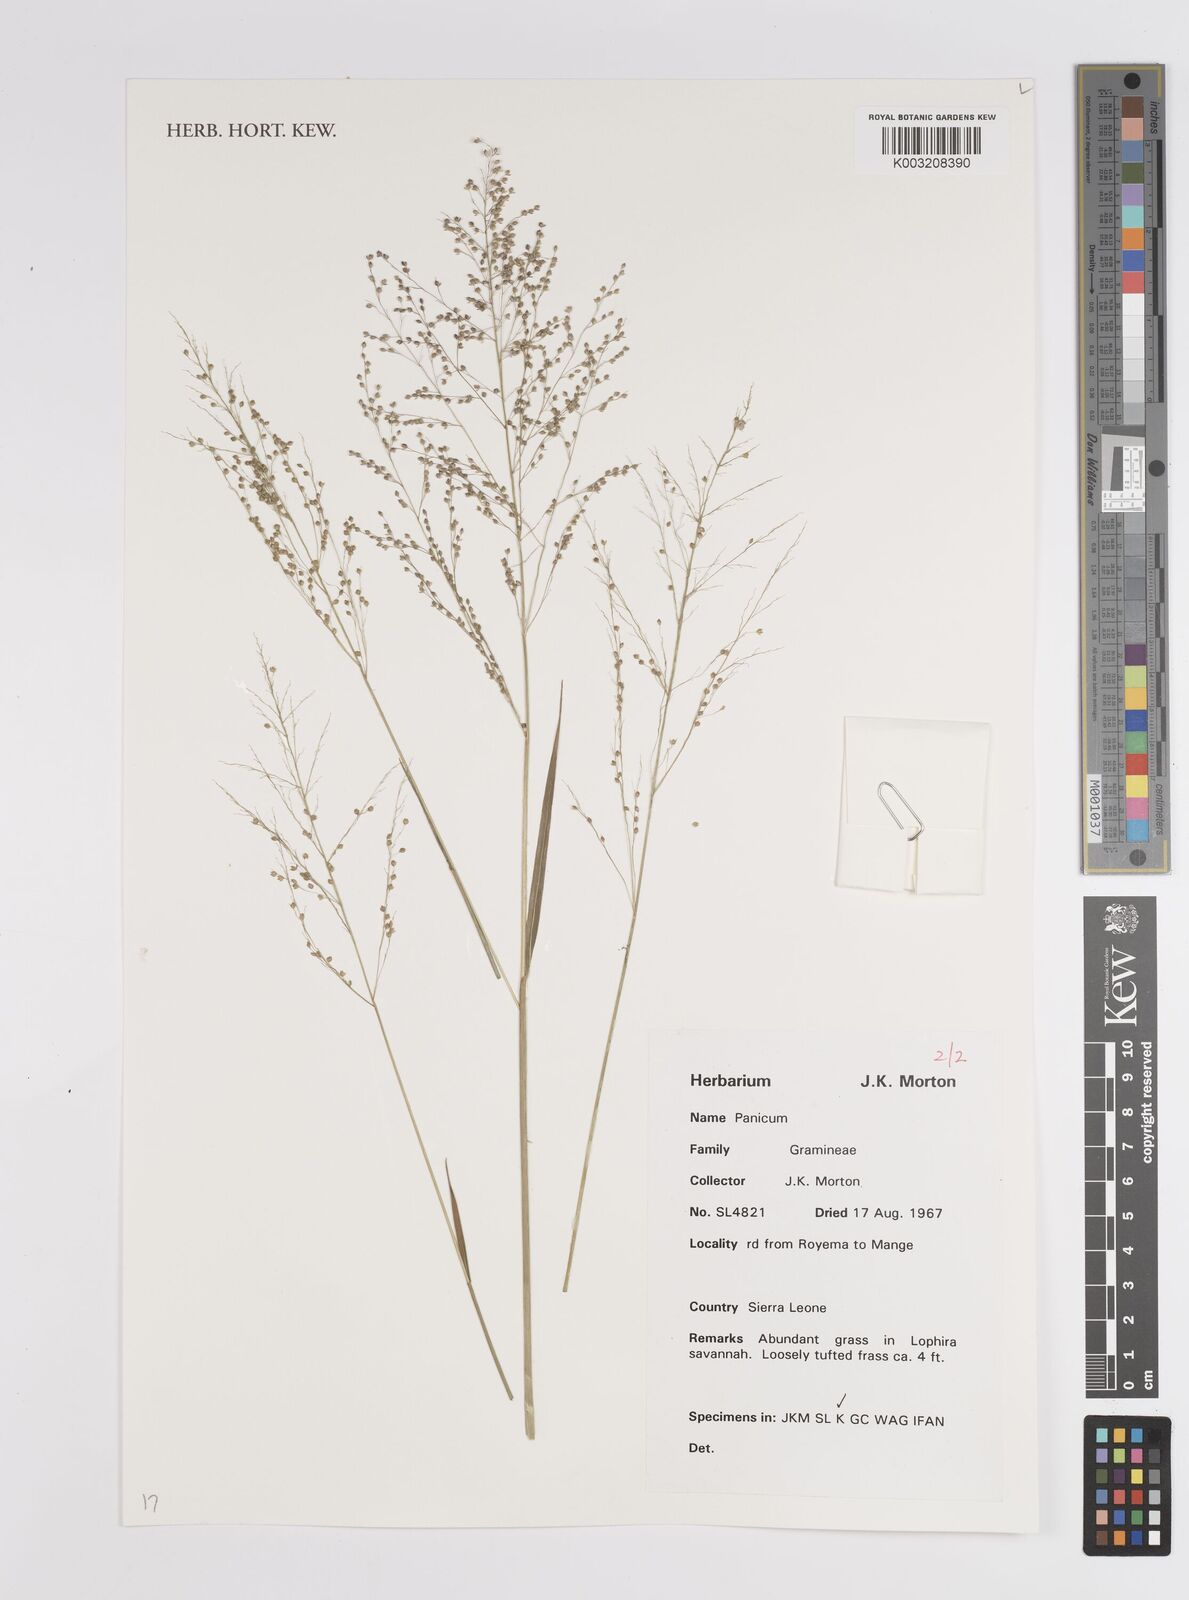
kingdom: Plantae
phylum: Tracheophyta
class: Liliopsida
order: Poales
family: Poaceae
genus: Panicum
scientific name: Panicum
